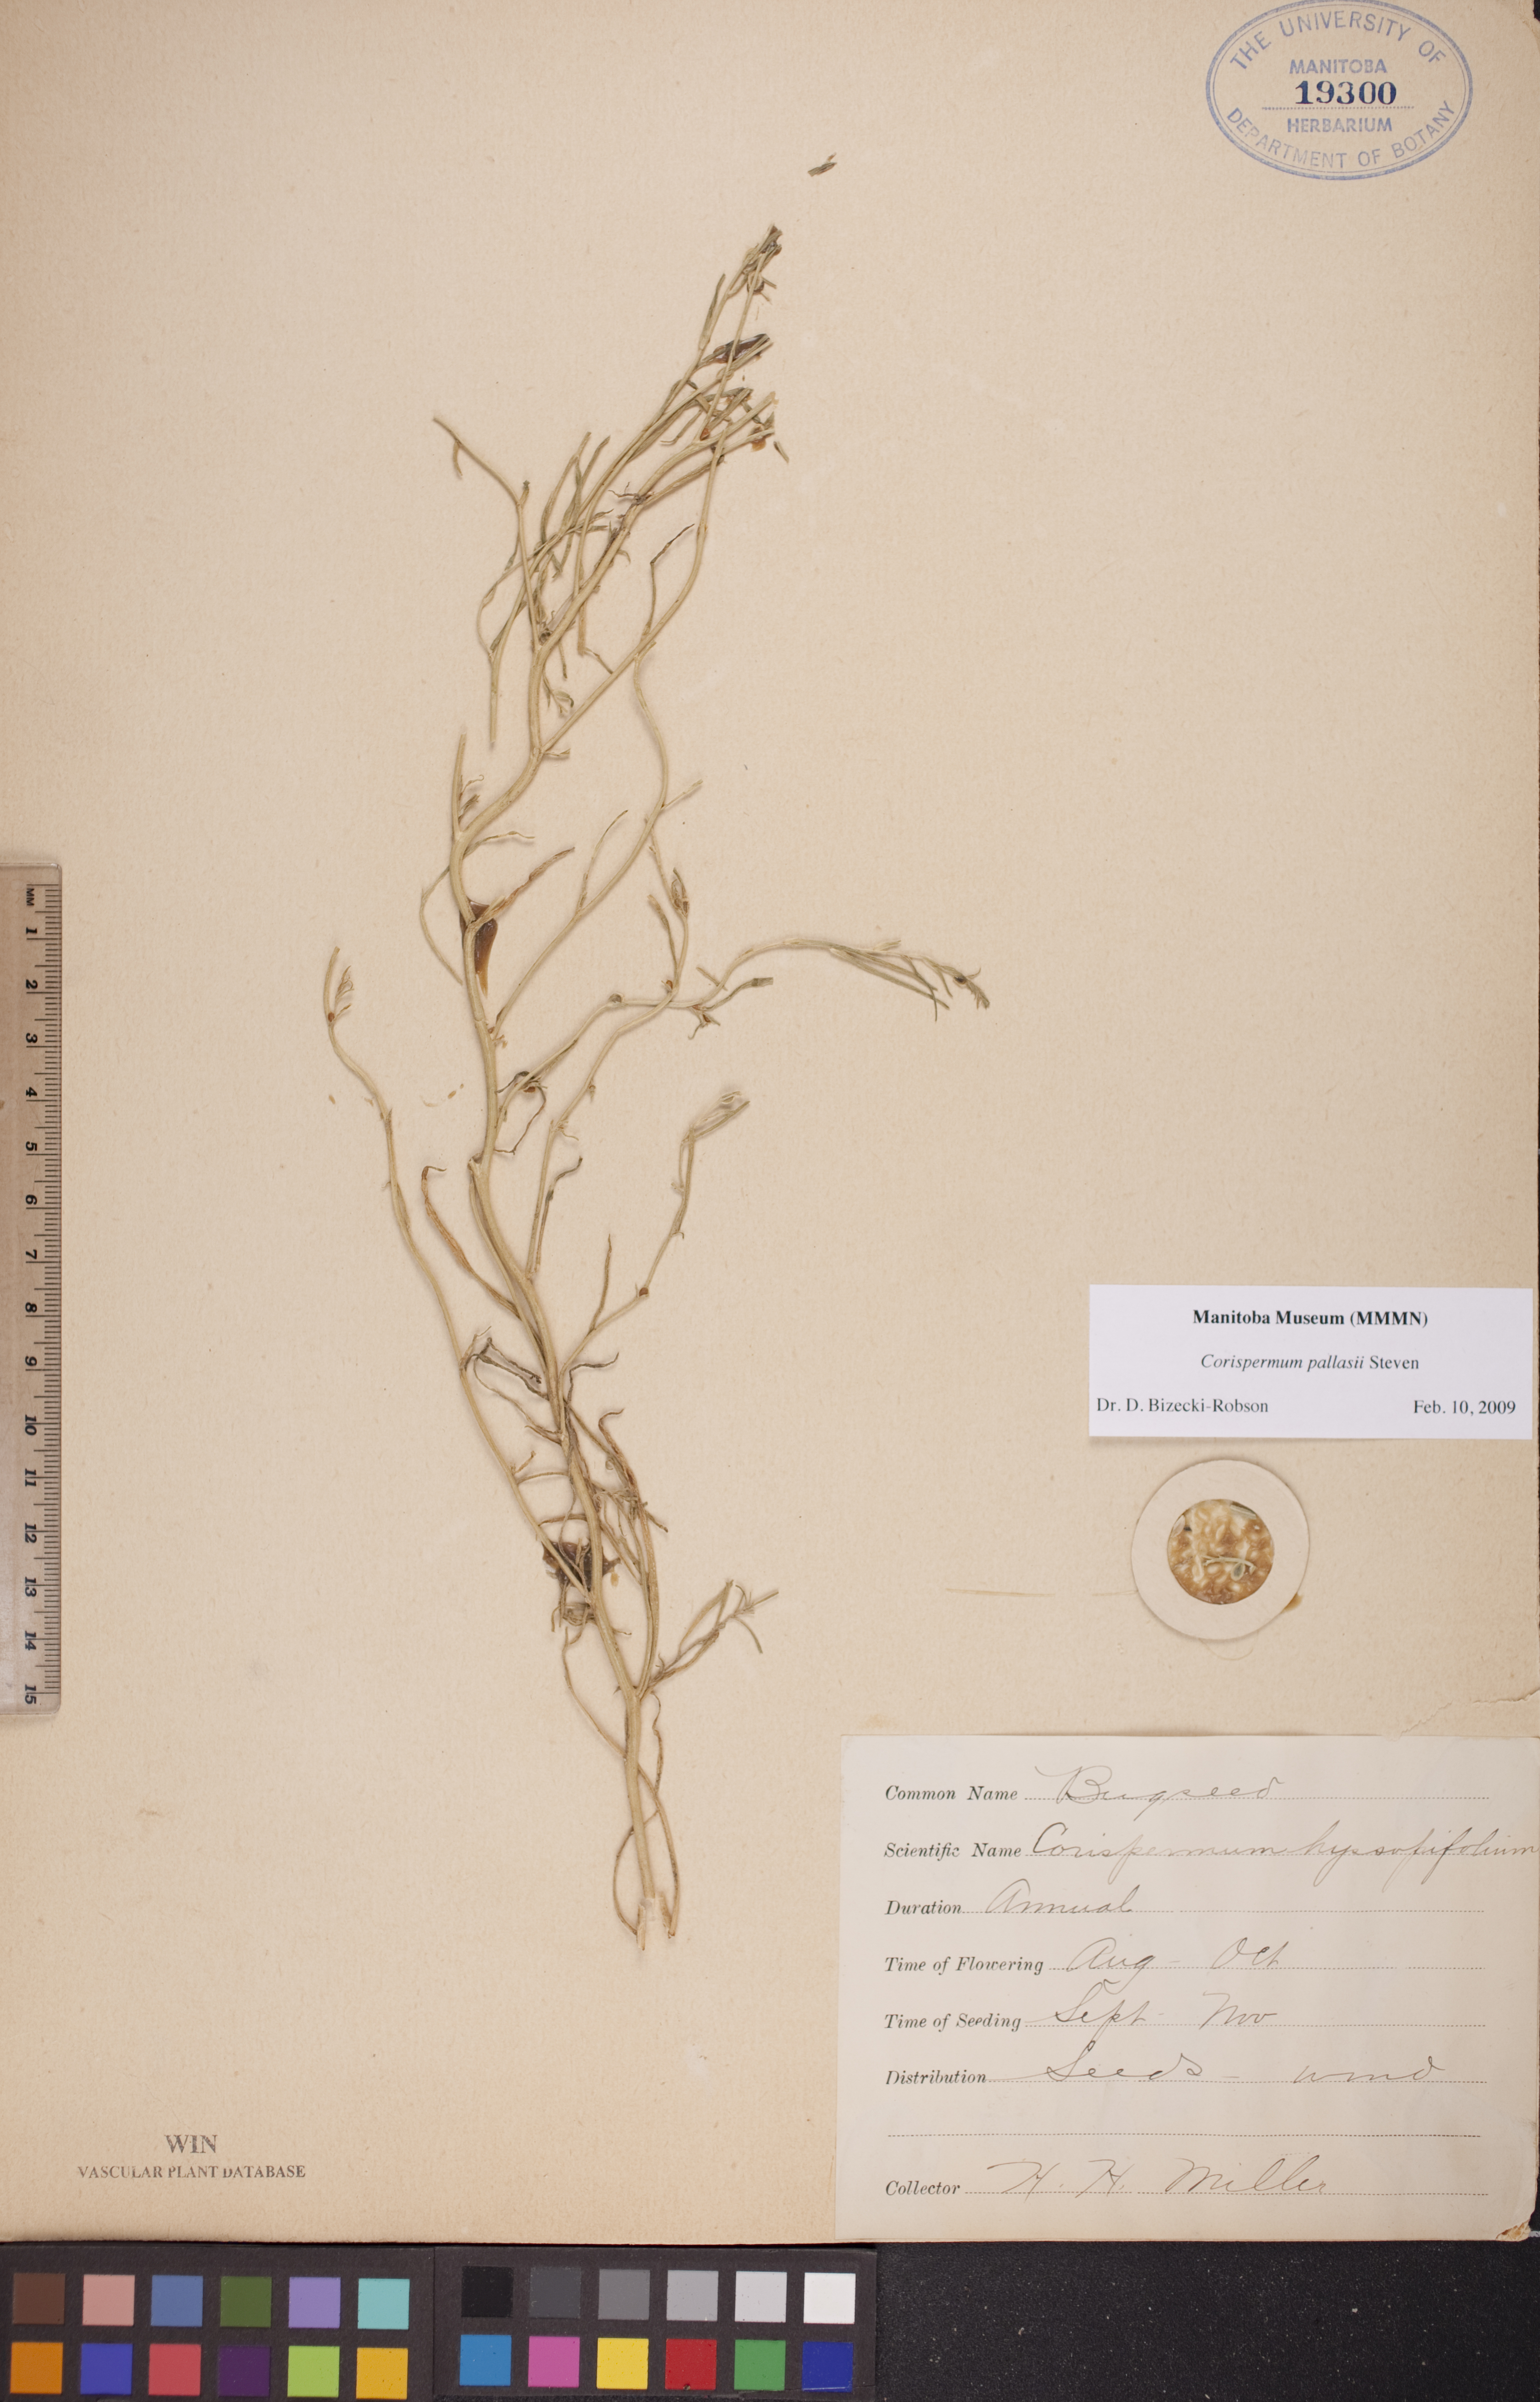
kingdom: Plantae
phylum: Tracheophyta
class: Magnoliopsida
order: Caryophyllales
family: Amaranthaceae
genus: Corispermum
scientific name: Corispermum pallasii
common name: Siberian bugseed
